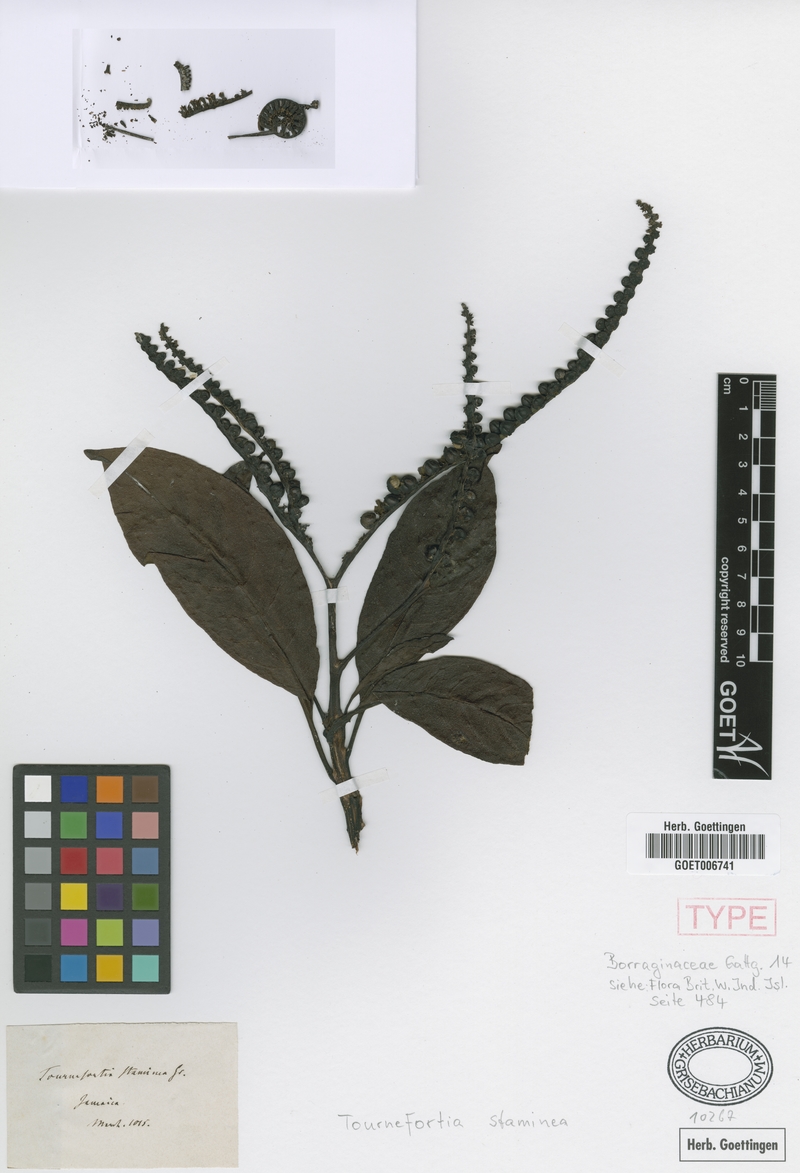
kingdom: Plantae
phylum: Tracheophyta
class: Magnoliopsida
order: Boraginales
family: Heliotropiaceae
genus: Heliotropium
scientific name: Heliotropium stamineum
